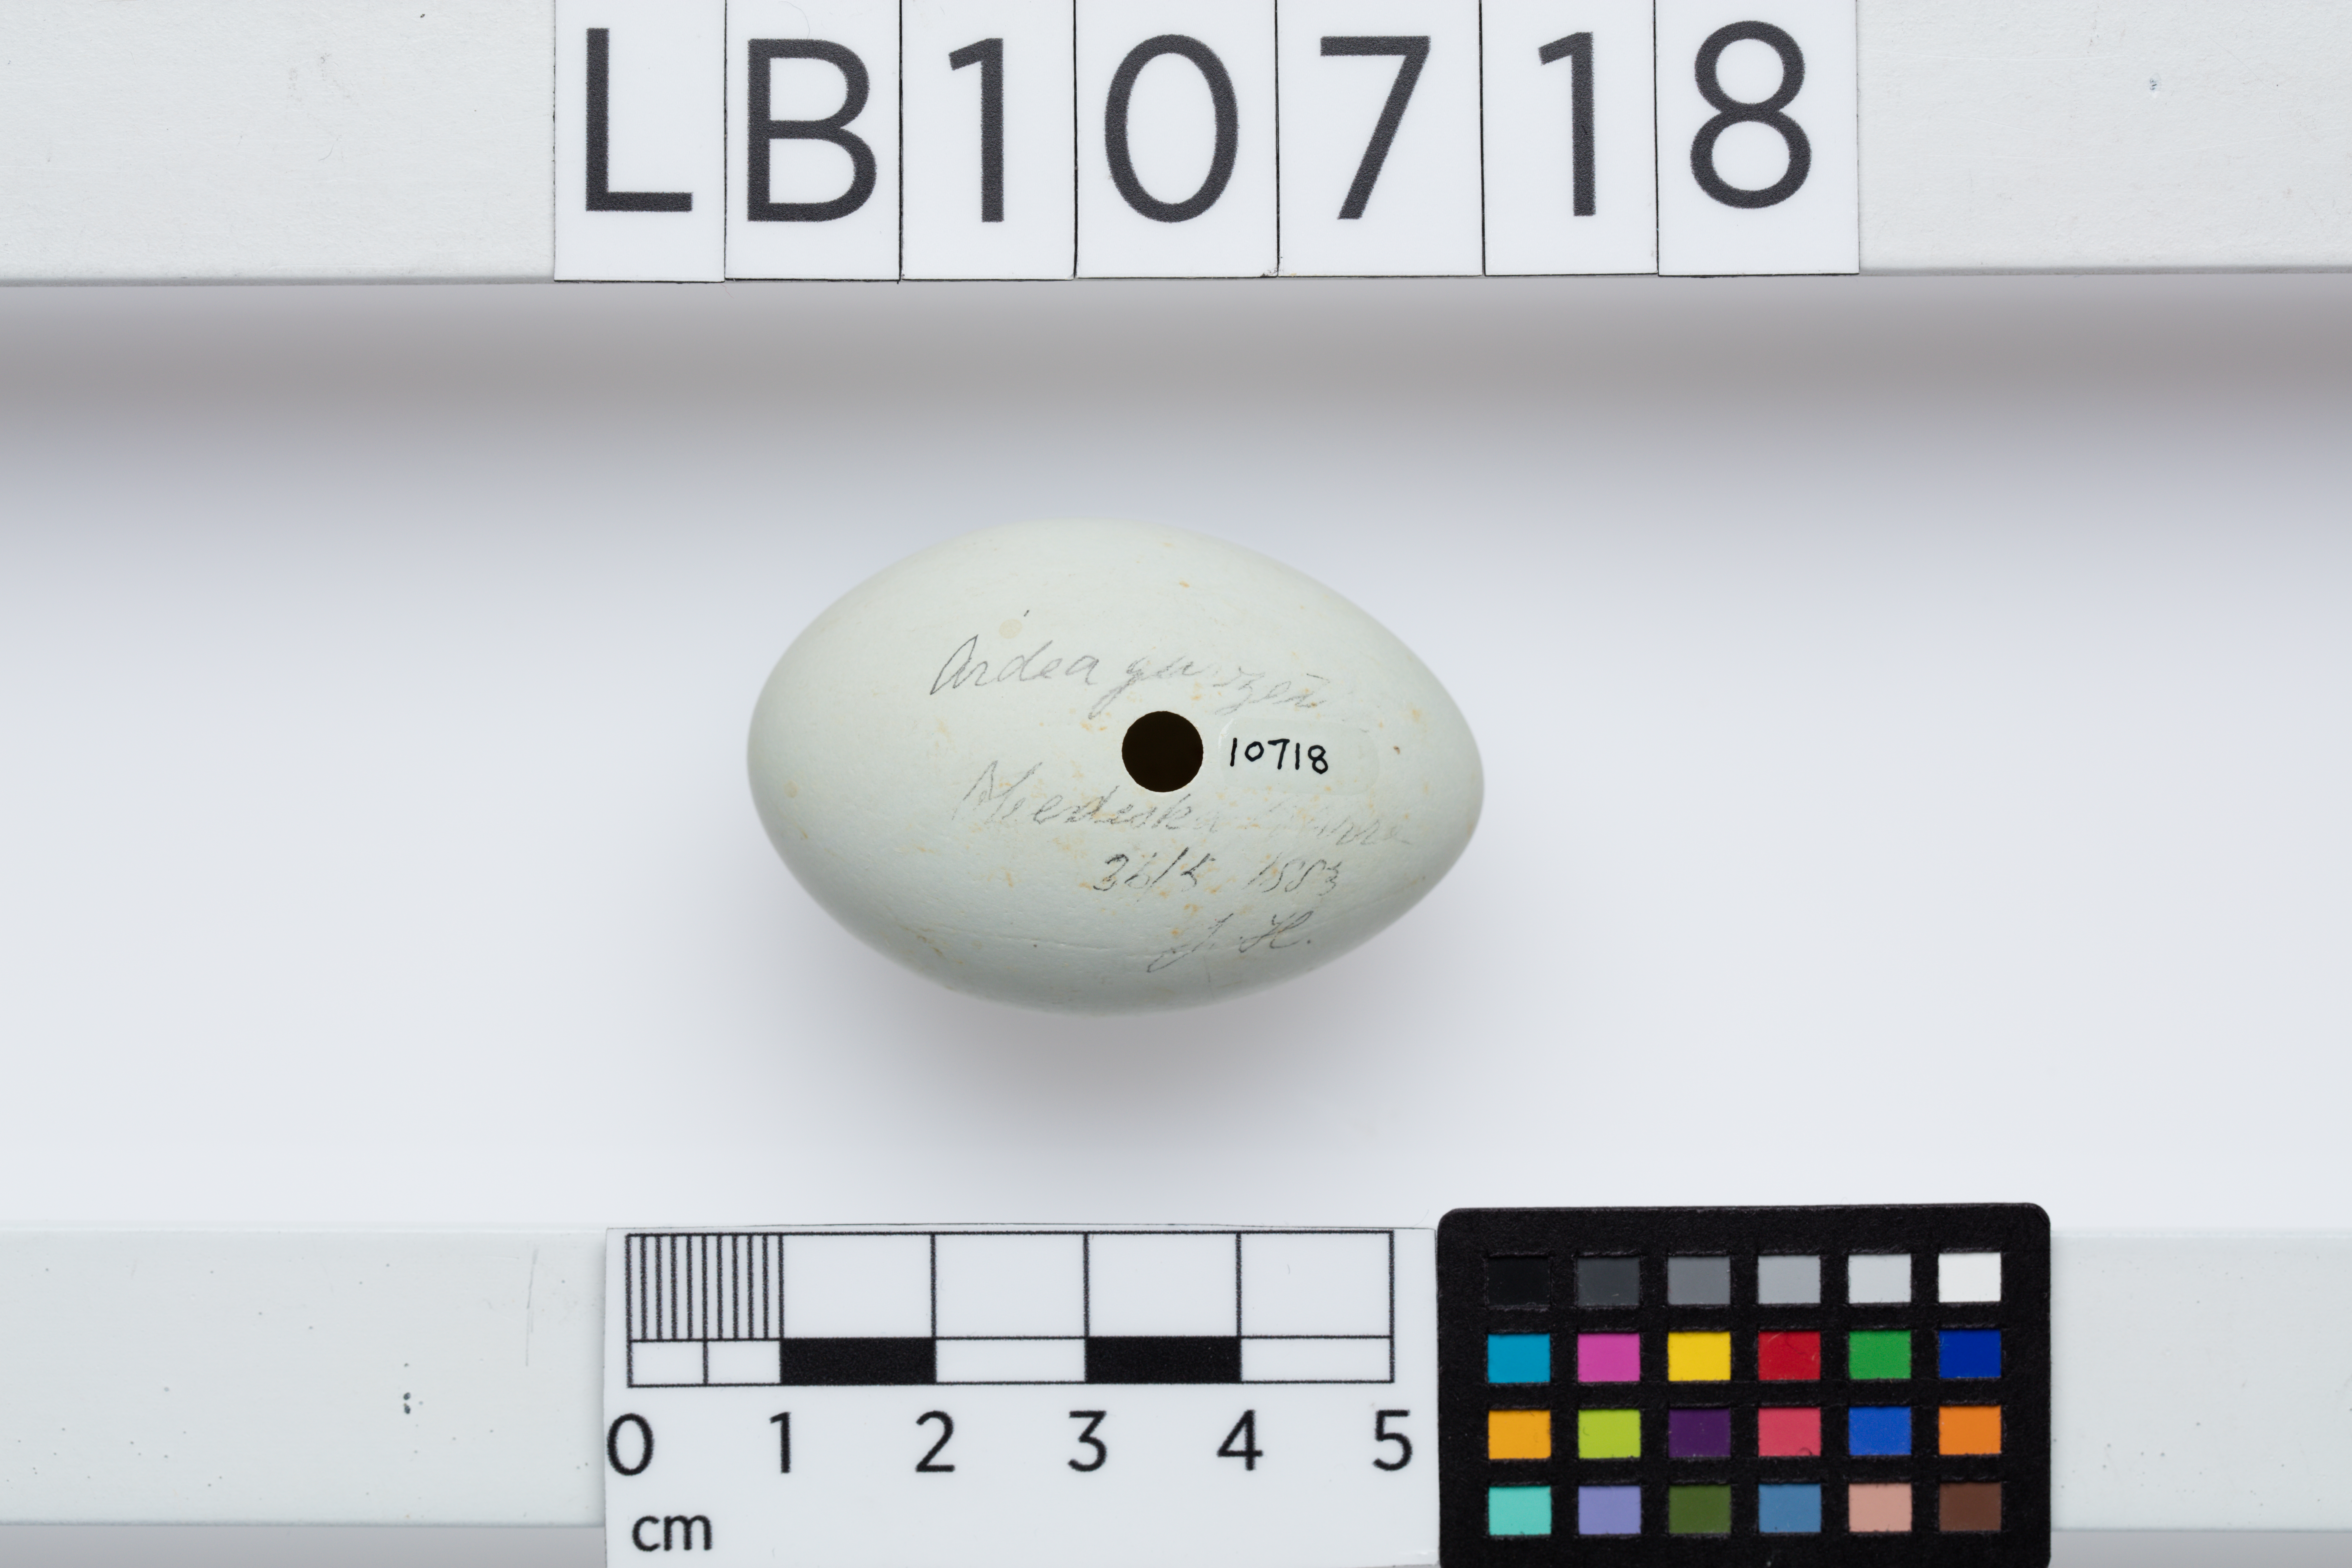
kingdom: Animalia
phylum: Chordata
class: Aves
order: Pelecaniformes
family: Ardeidae
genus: Egretta
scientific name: Egretta garzetta
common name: Little egret
